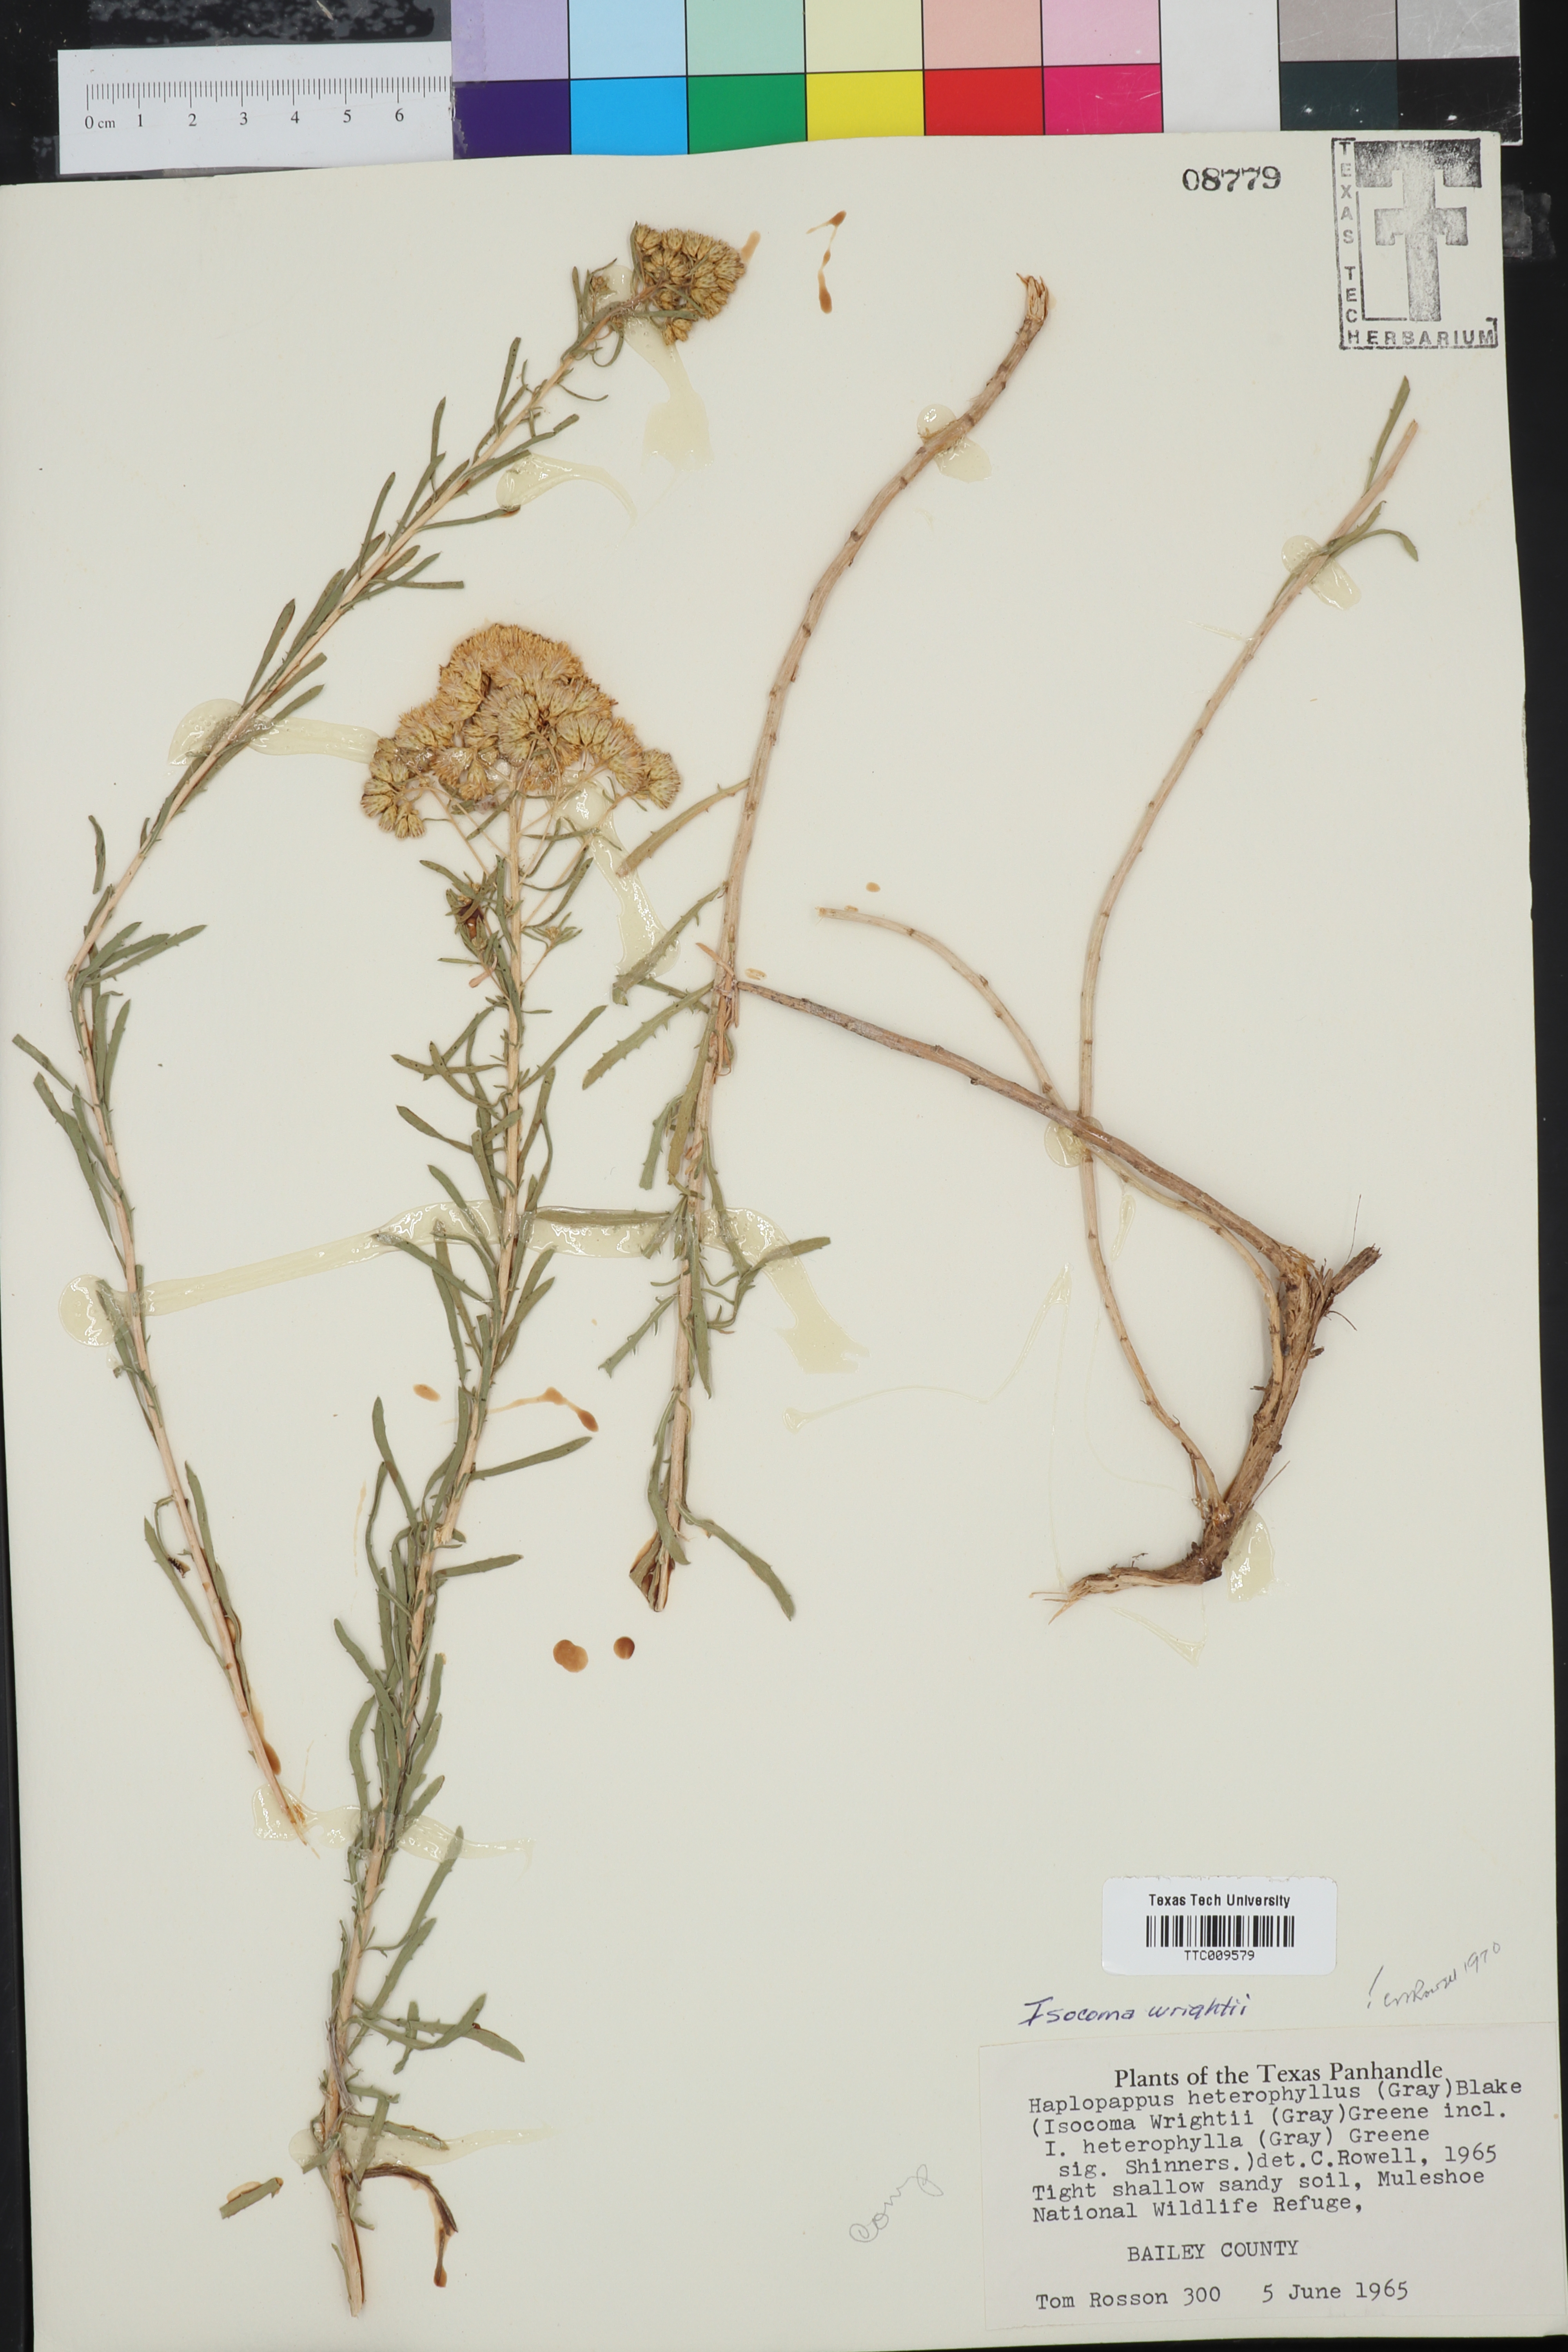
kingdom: Plantae
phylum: Tracheophyta
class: Magnoliopsida
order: Asterales
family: Asteraceae
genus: Isocoma
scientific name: Isocoma pluriflora
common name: Southern jimmyweed
